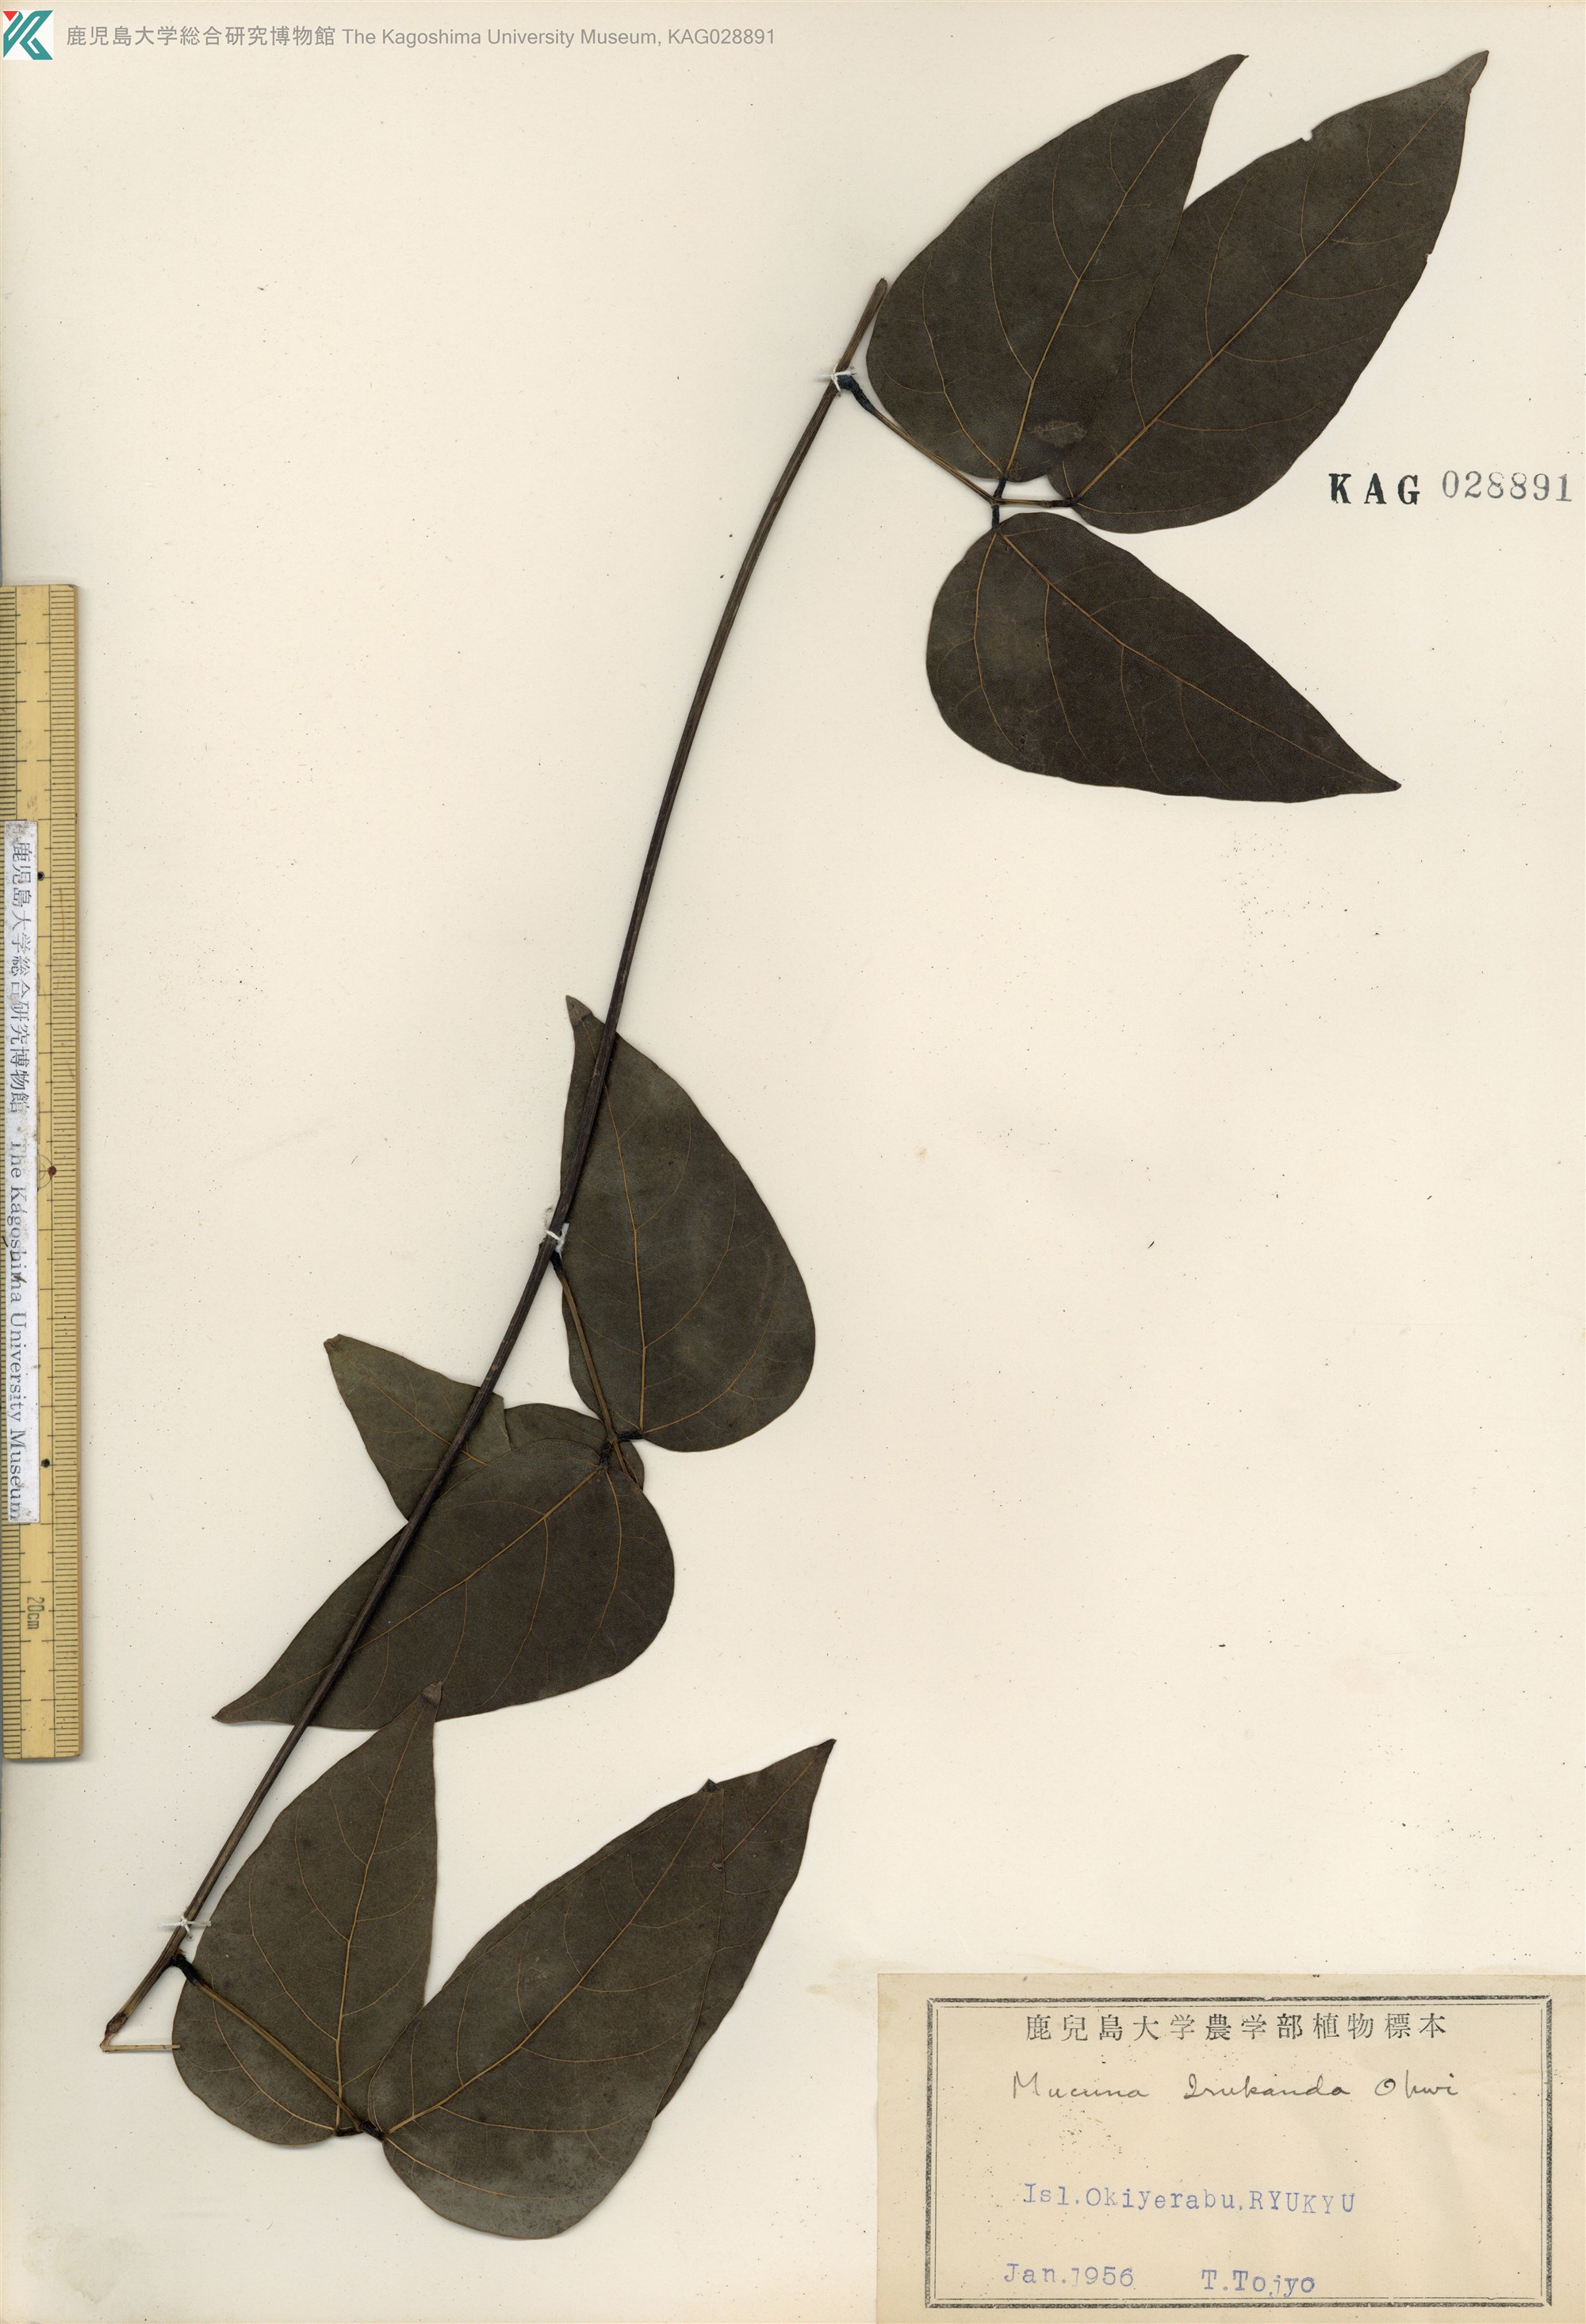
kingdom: Plantae
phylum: Tracheophyta
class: Magnoliopsida
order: Fabales
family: Fabaceae
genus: Mucuna
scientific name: Mucuna macrocarpa
